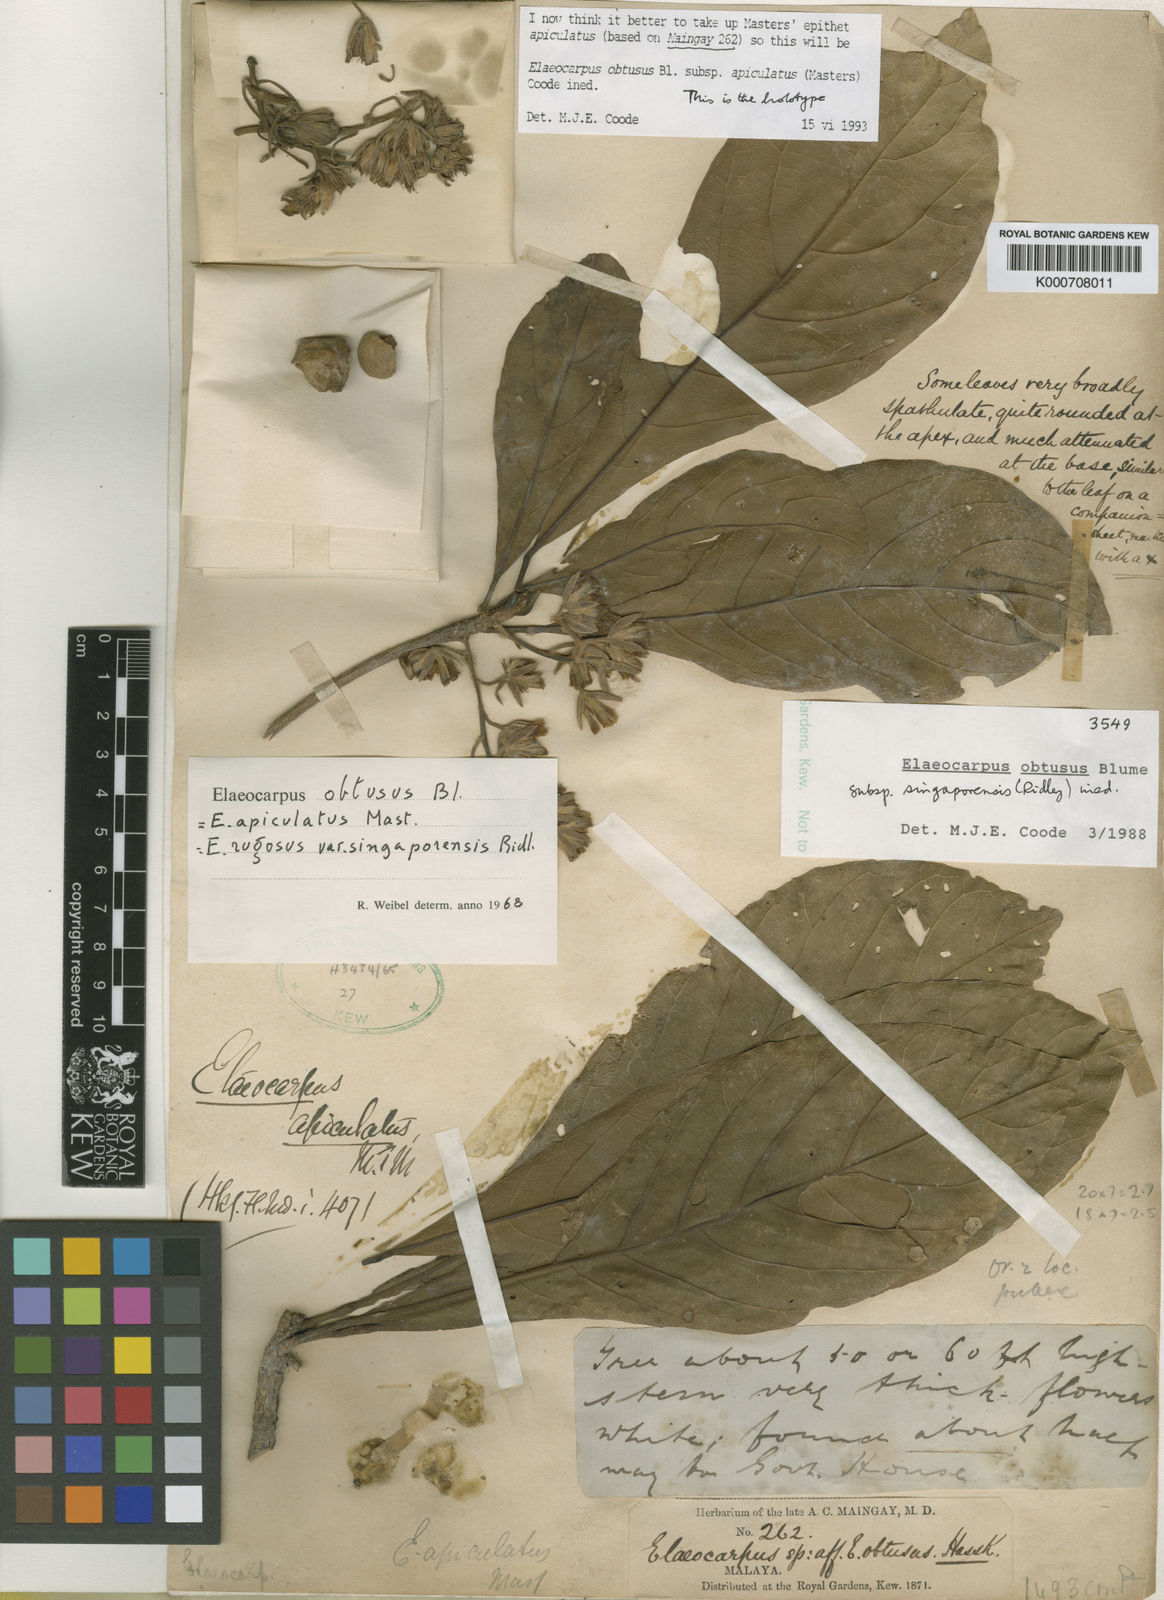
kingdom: Plantae
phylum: Tracheophyta
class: Magnoliopsida
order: Oxalidales
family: Elaeocarpaceae
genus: Elaeocarpus
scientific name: Elaeocarpus obtusus
